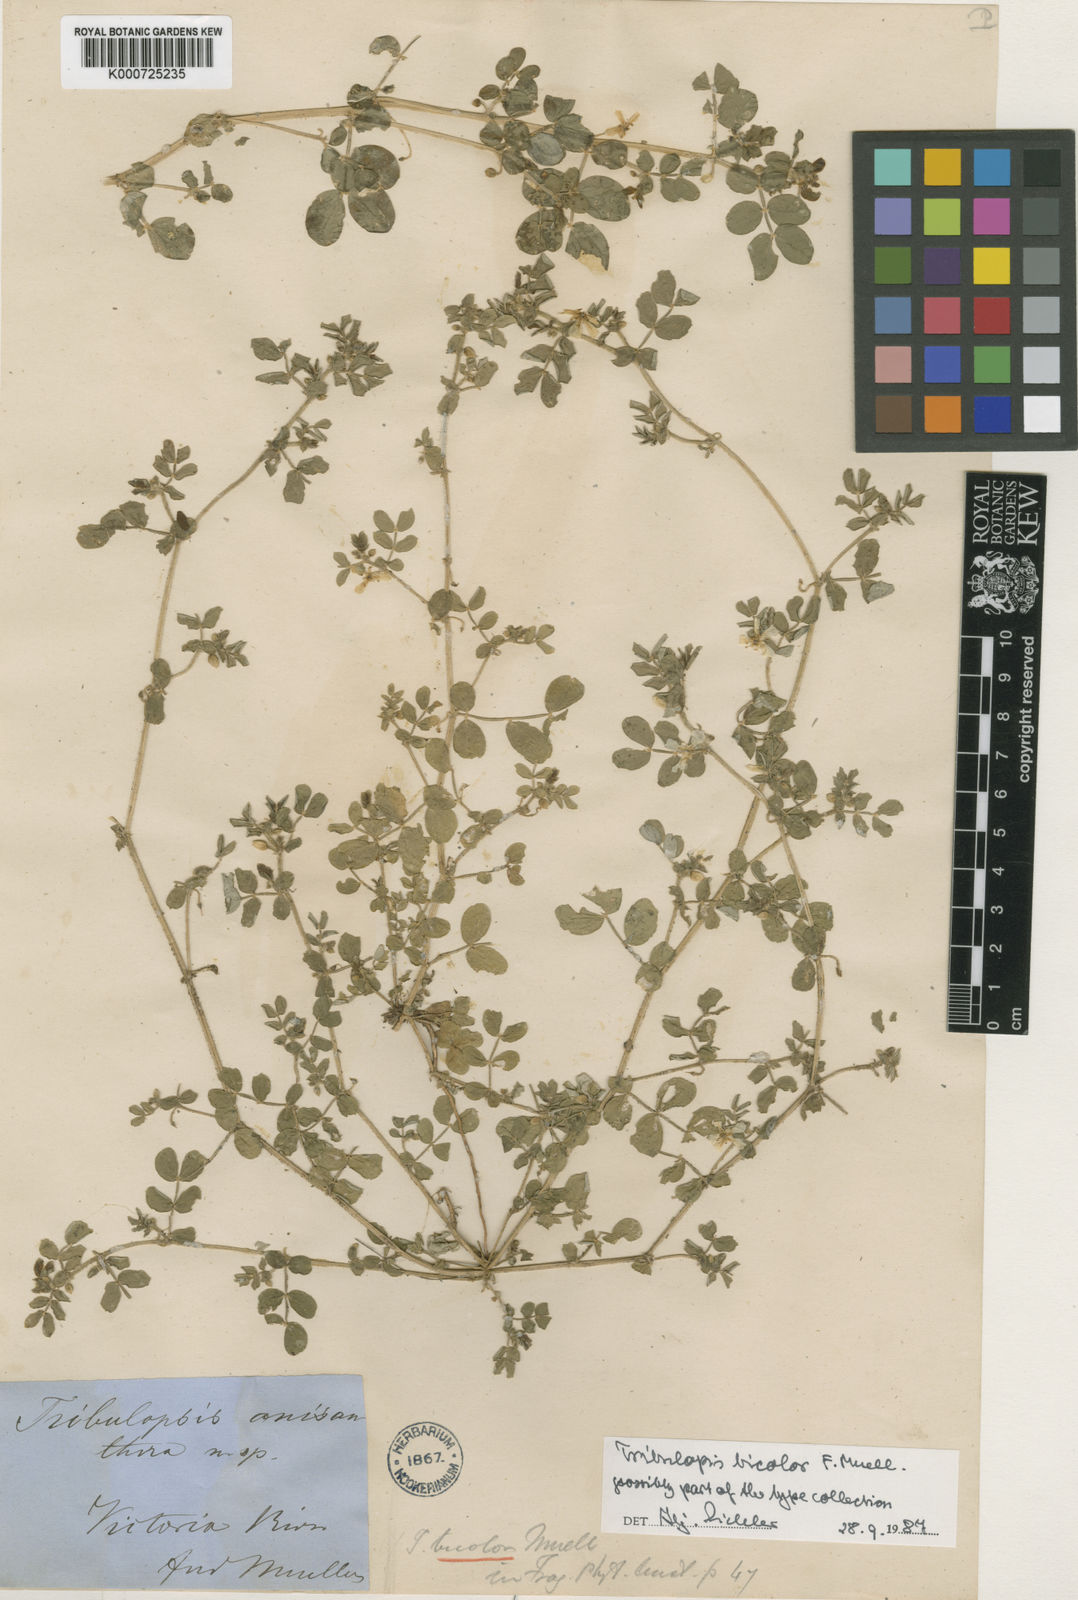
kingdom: Plantae
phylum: Tracheophyta
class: Magnoliopsida
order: Zygophyllales
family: Zygophyllaceae
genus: Tribulopis
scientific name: Tribulopis bicolor
